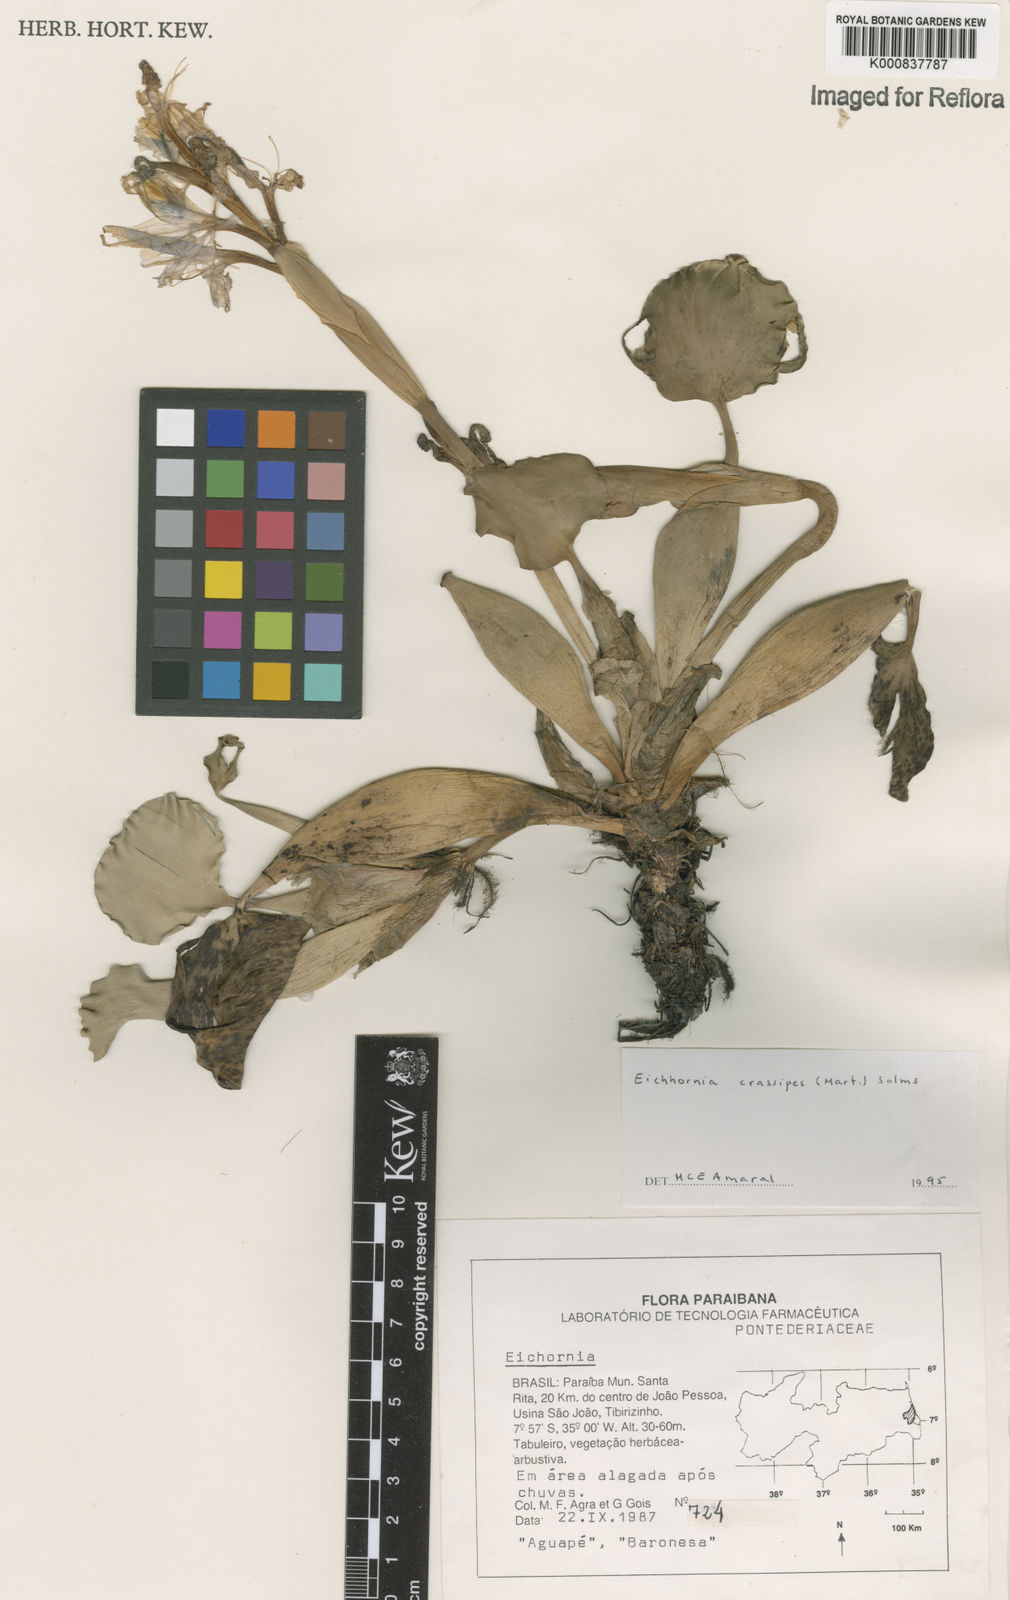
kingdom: Plantae
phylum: Tracheophyta
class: Liliopsida
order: Commelinales
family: Pontederiaceae
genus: Pontederia
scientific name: Pontederia crassipes
